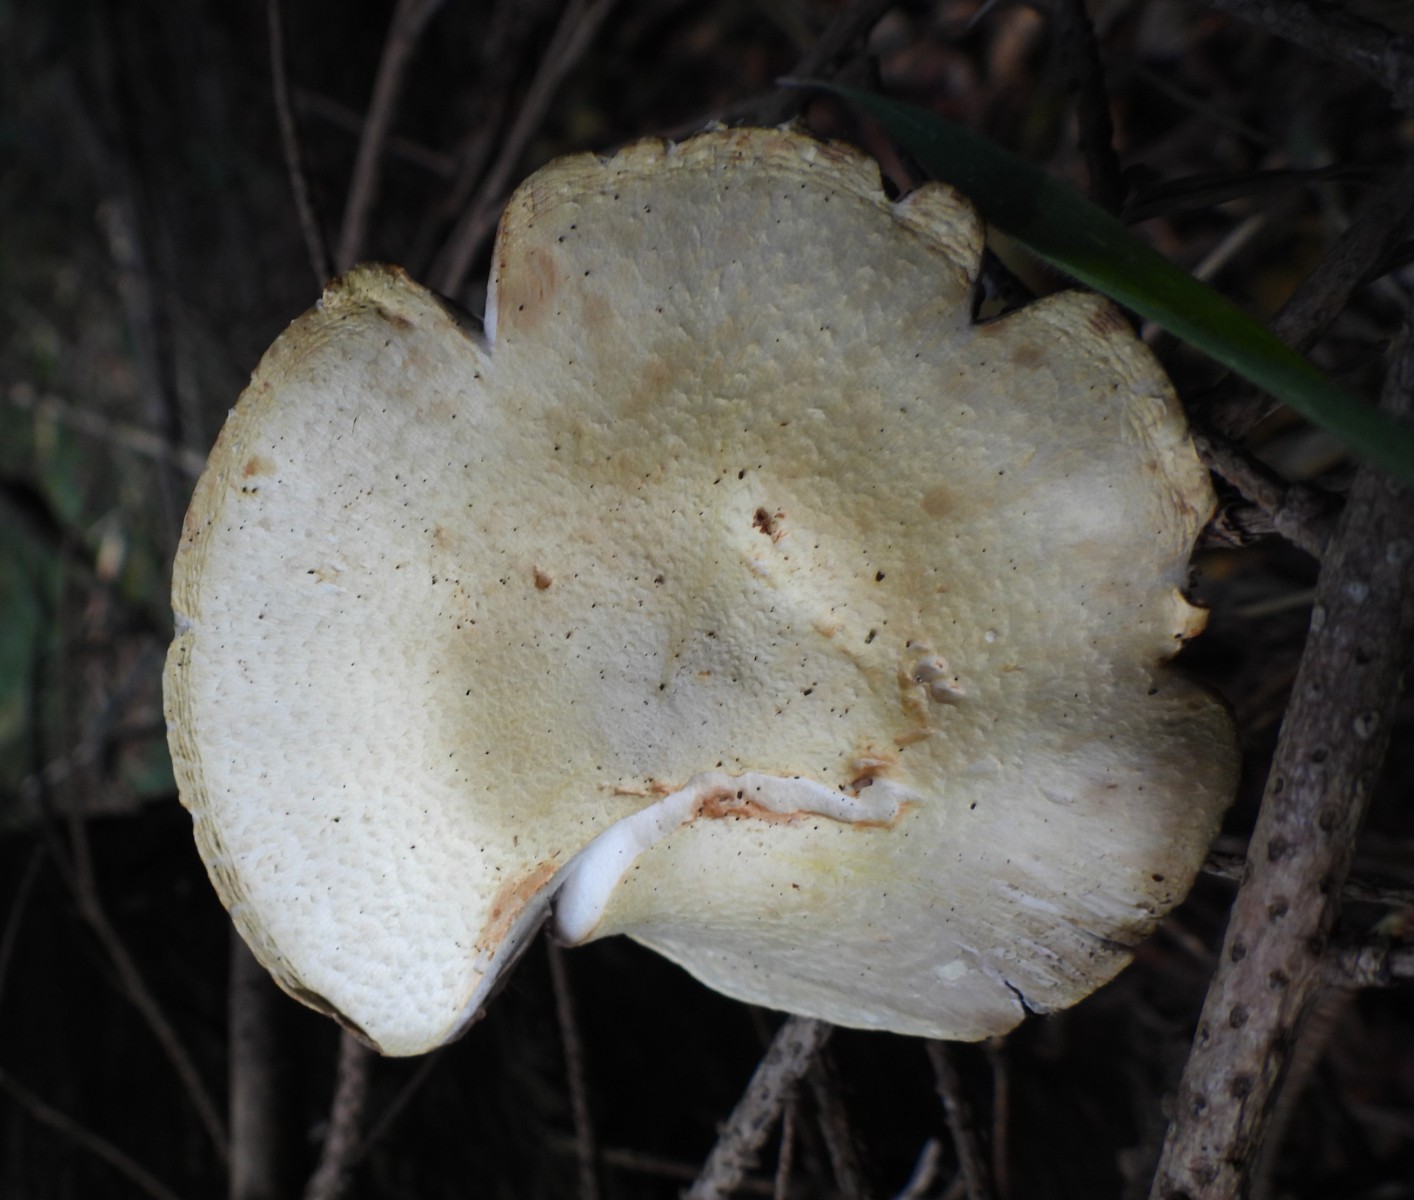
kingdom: Fungi
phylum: Basidiomycota
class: Agaricomycetes
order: Agaricales
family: Agaricaceae
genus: Agaricus
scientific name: Agaricus
